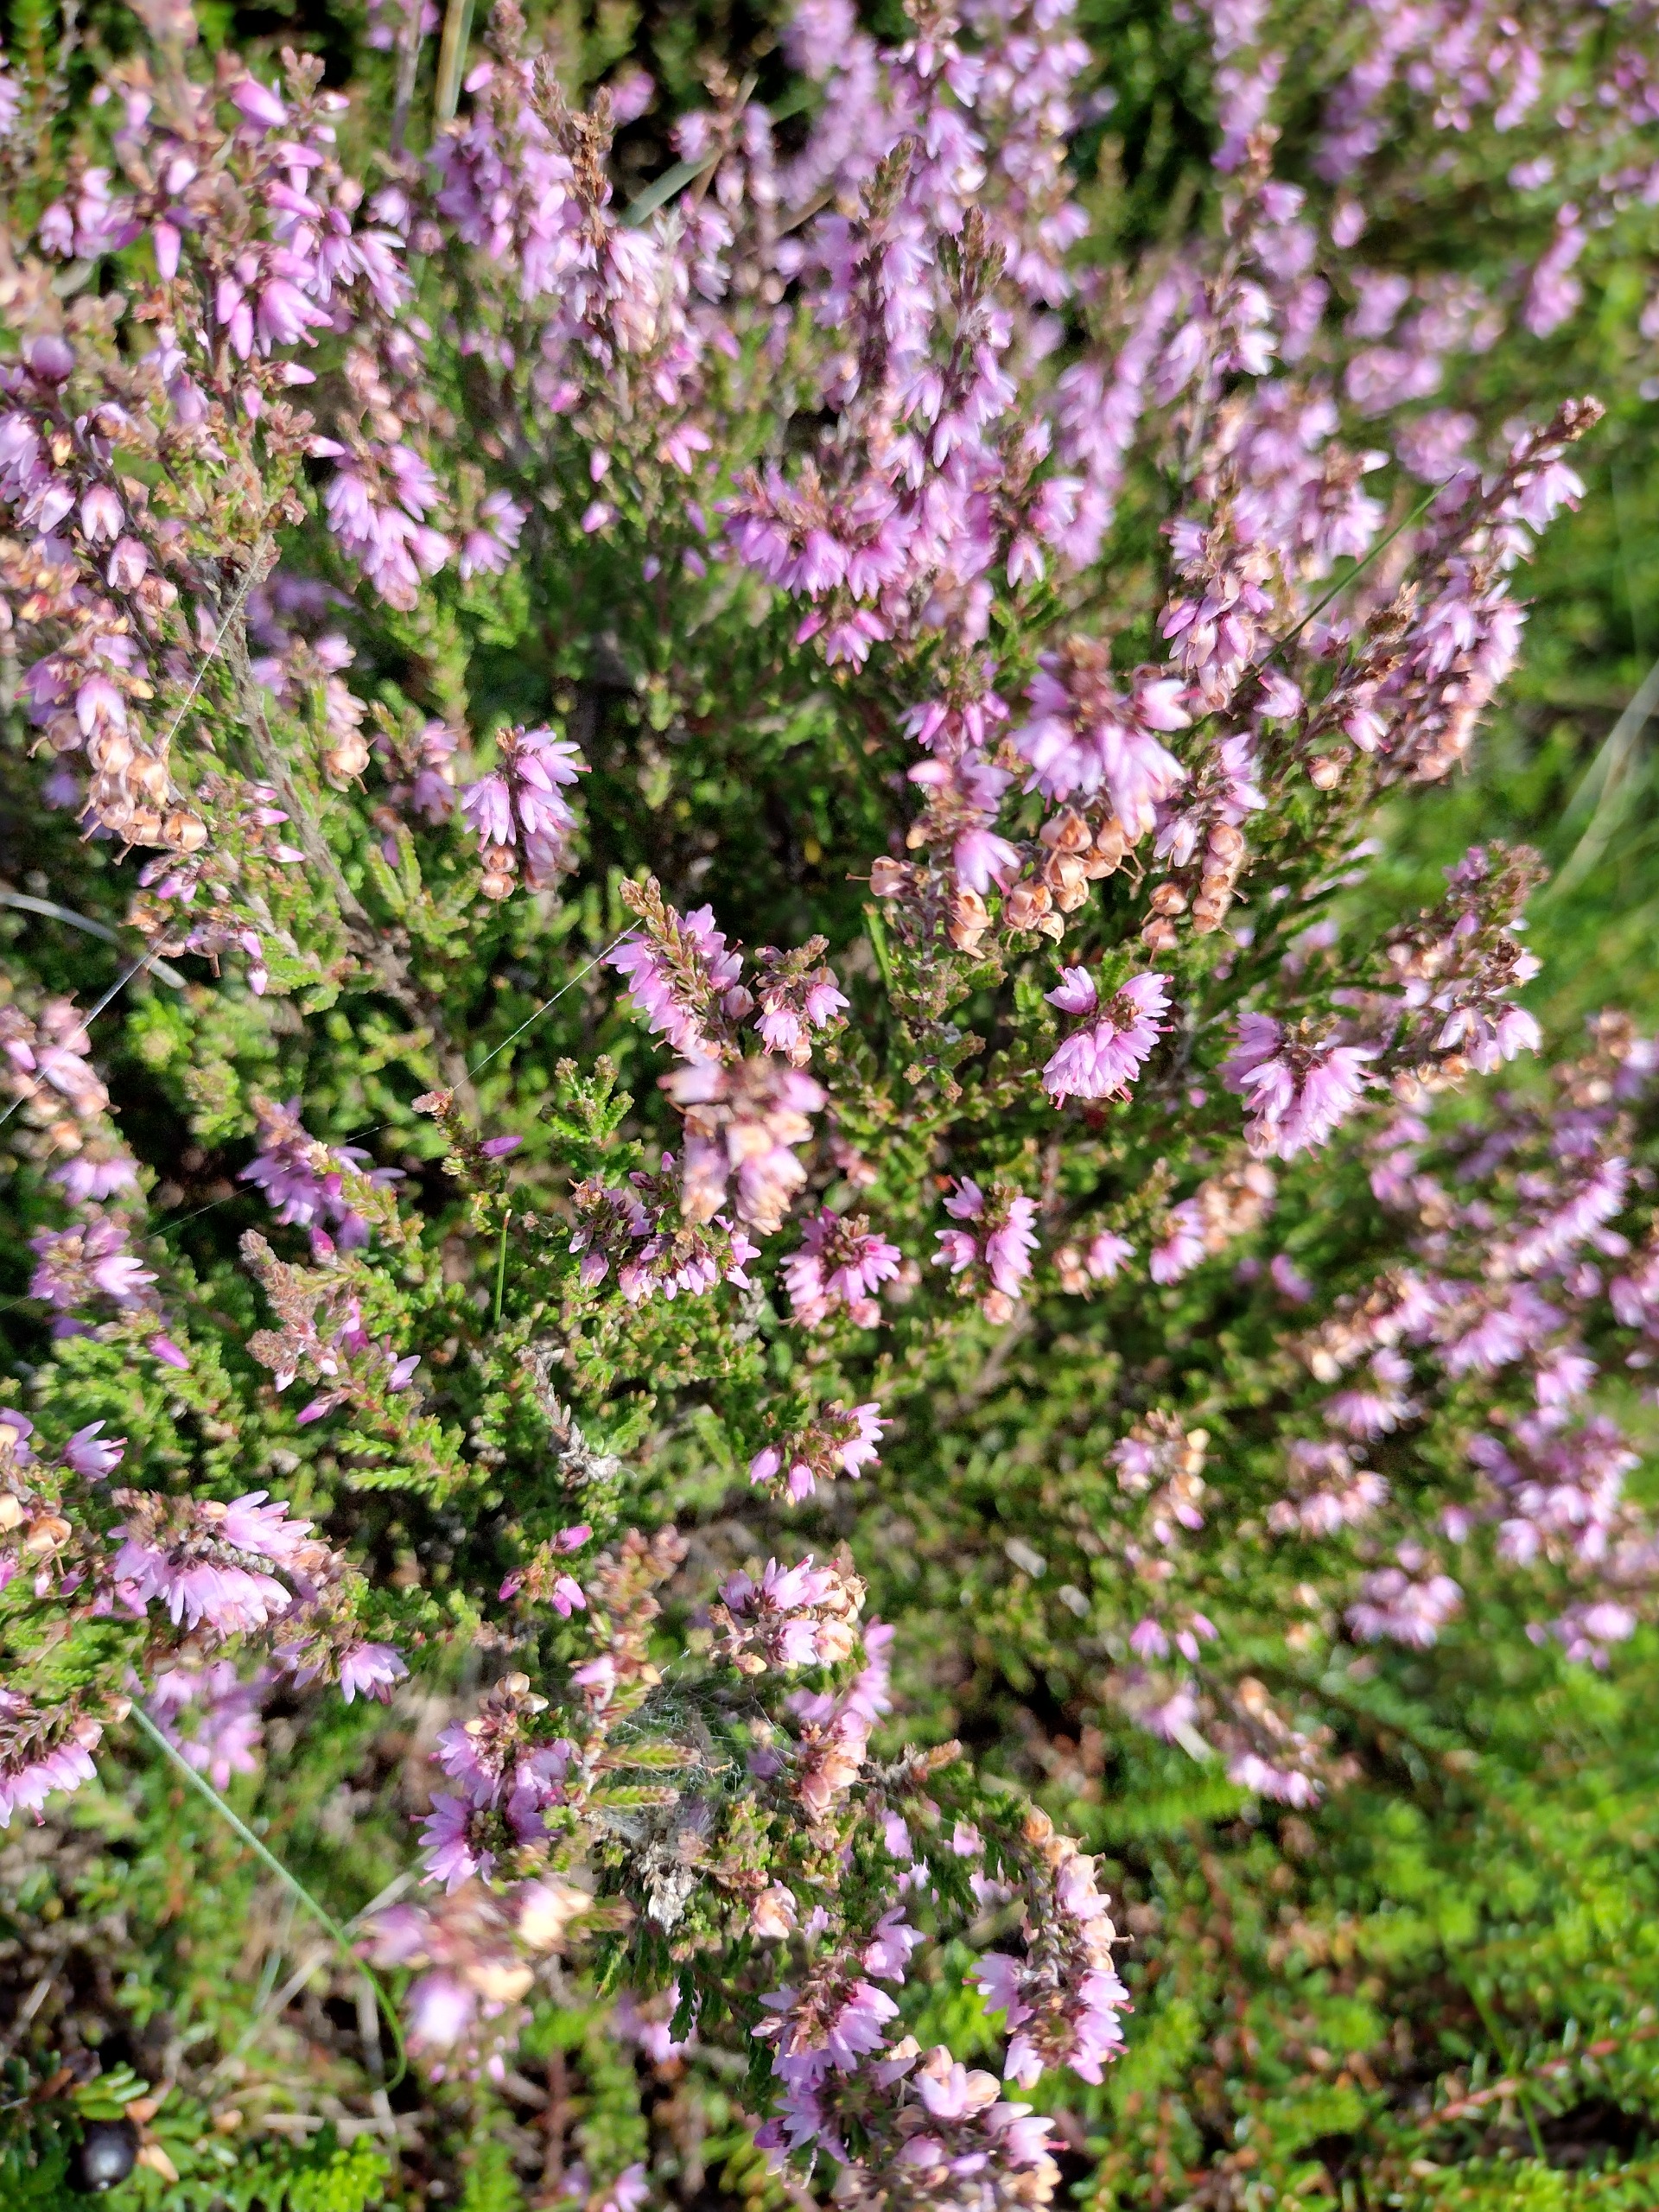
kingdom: Plantae
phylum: Tracheophyta
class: Magnoliopsida
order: Ericales
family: Ericaceae
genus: Calluna
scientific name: Calluna vulgaris
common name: Hedelyng
